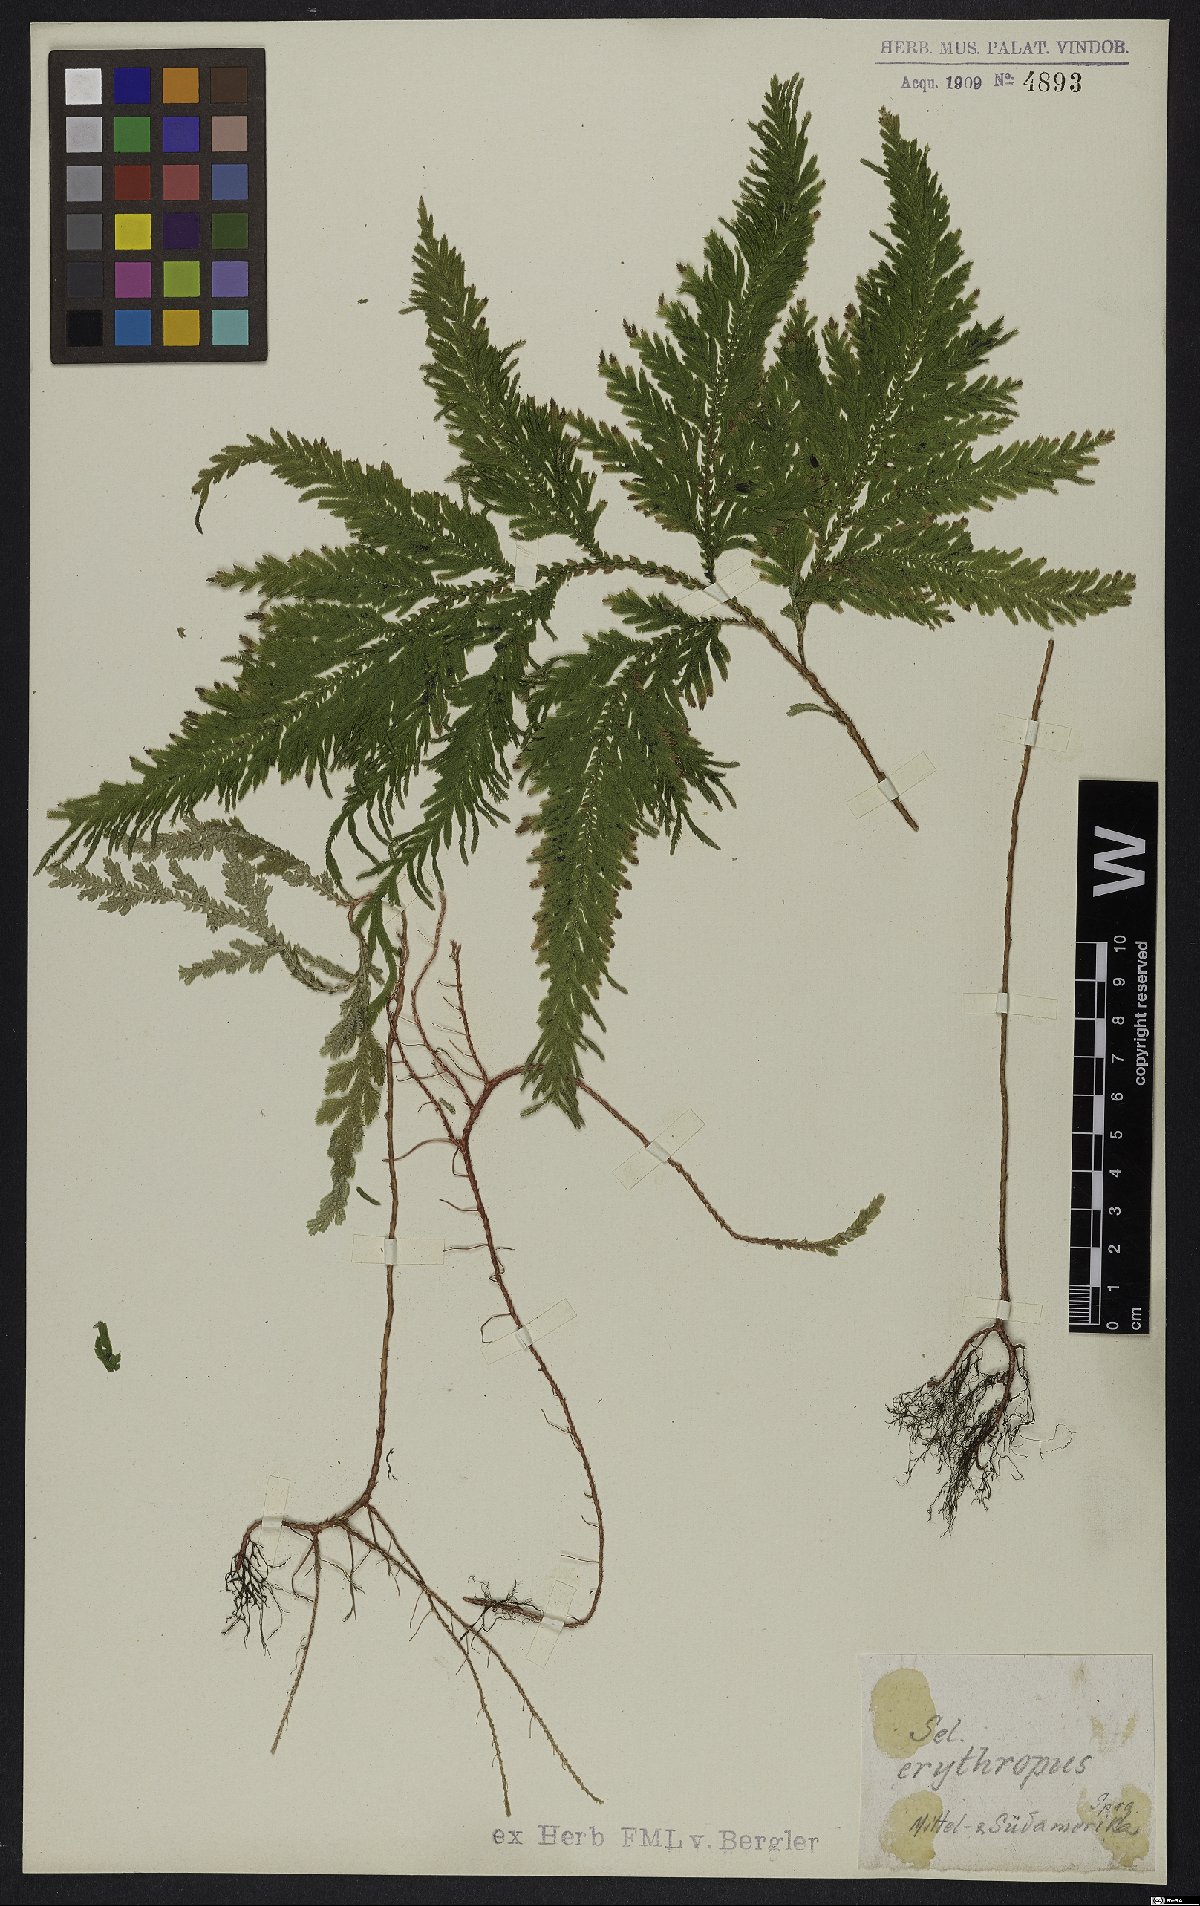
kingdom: Plantae
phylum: Tracheophyta
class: Lycopodiopsida
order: Selaginellales
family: Selaginellaceae
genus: Selaginella
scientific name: Selaginella erythropus
